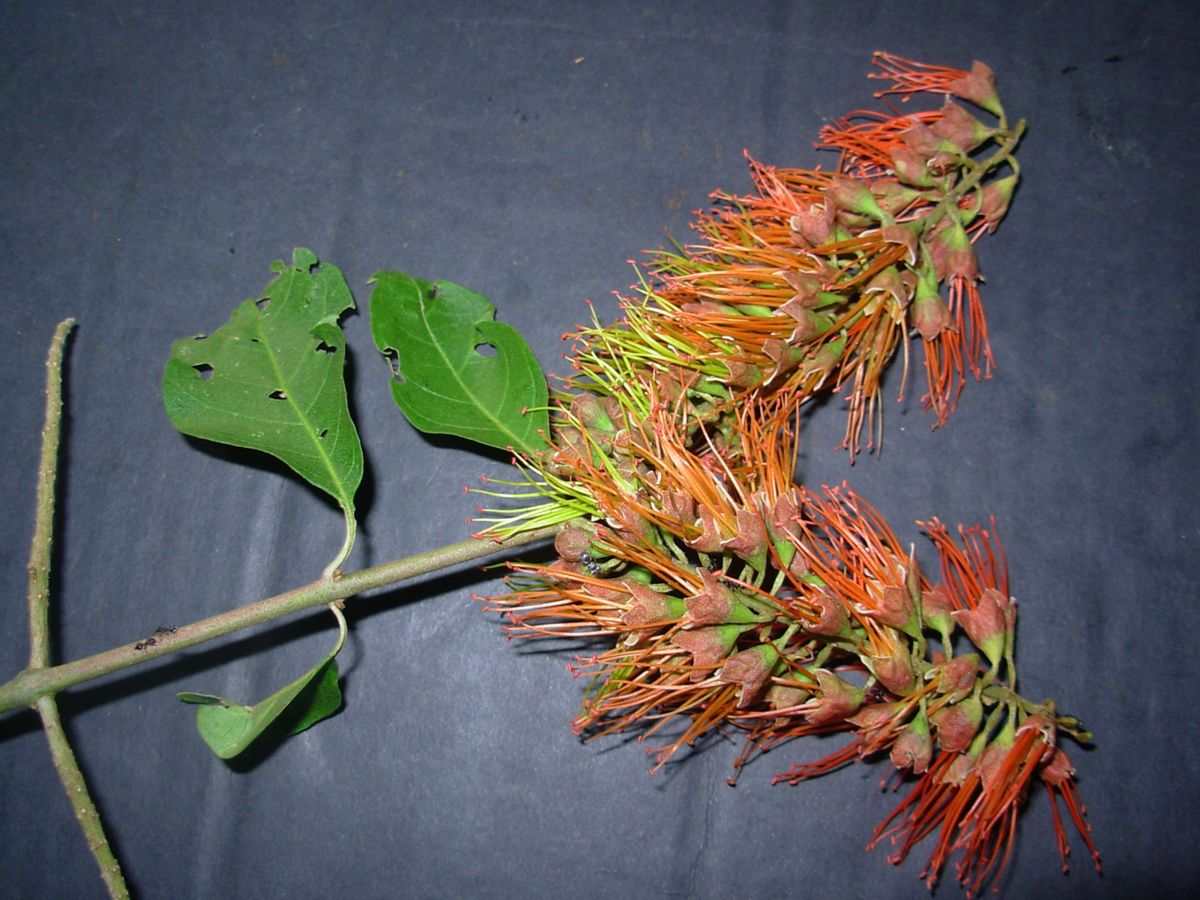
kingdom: Plantae
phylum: Tracheophyta
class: Magnoliopsida
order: Myrtales
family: Combretaceae
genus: Combretum
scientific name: Combretum farinosum
